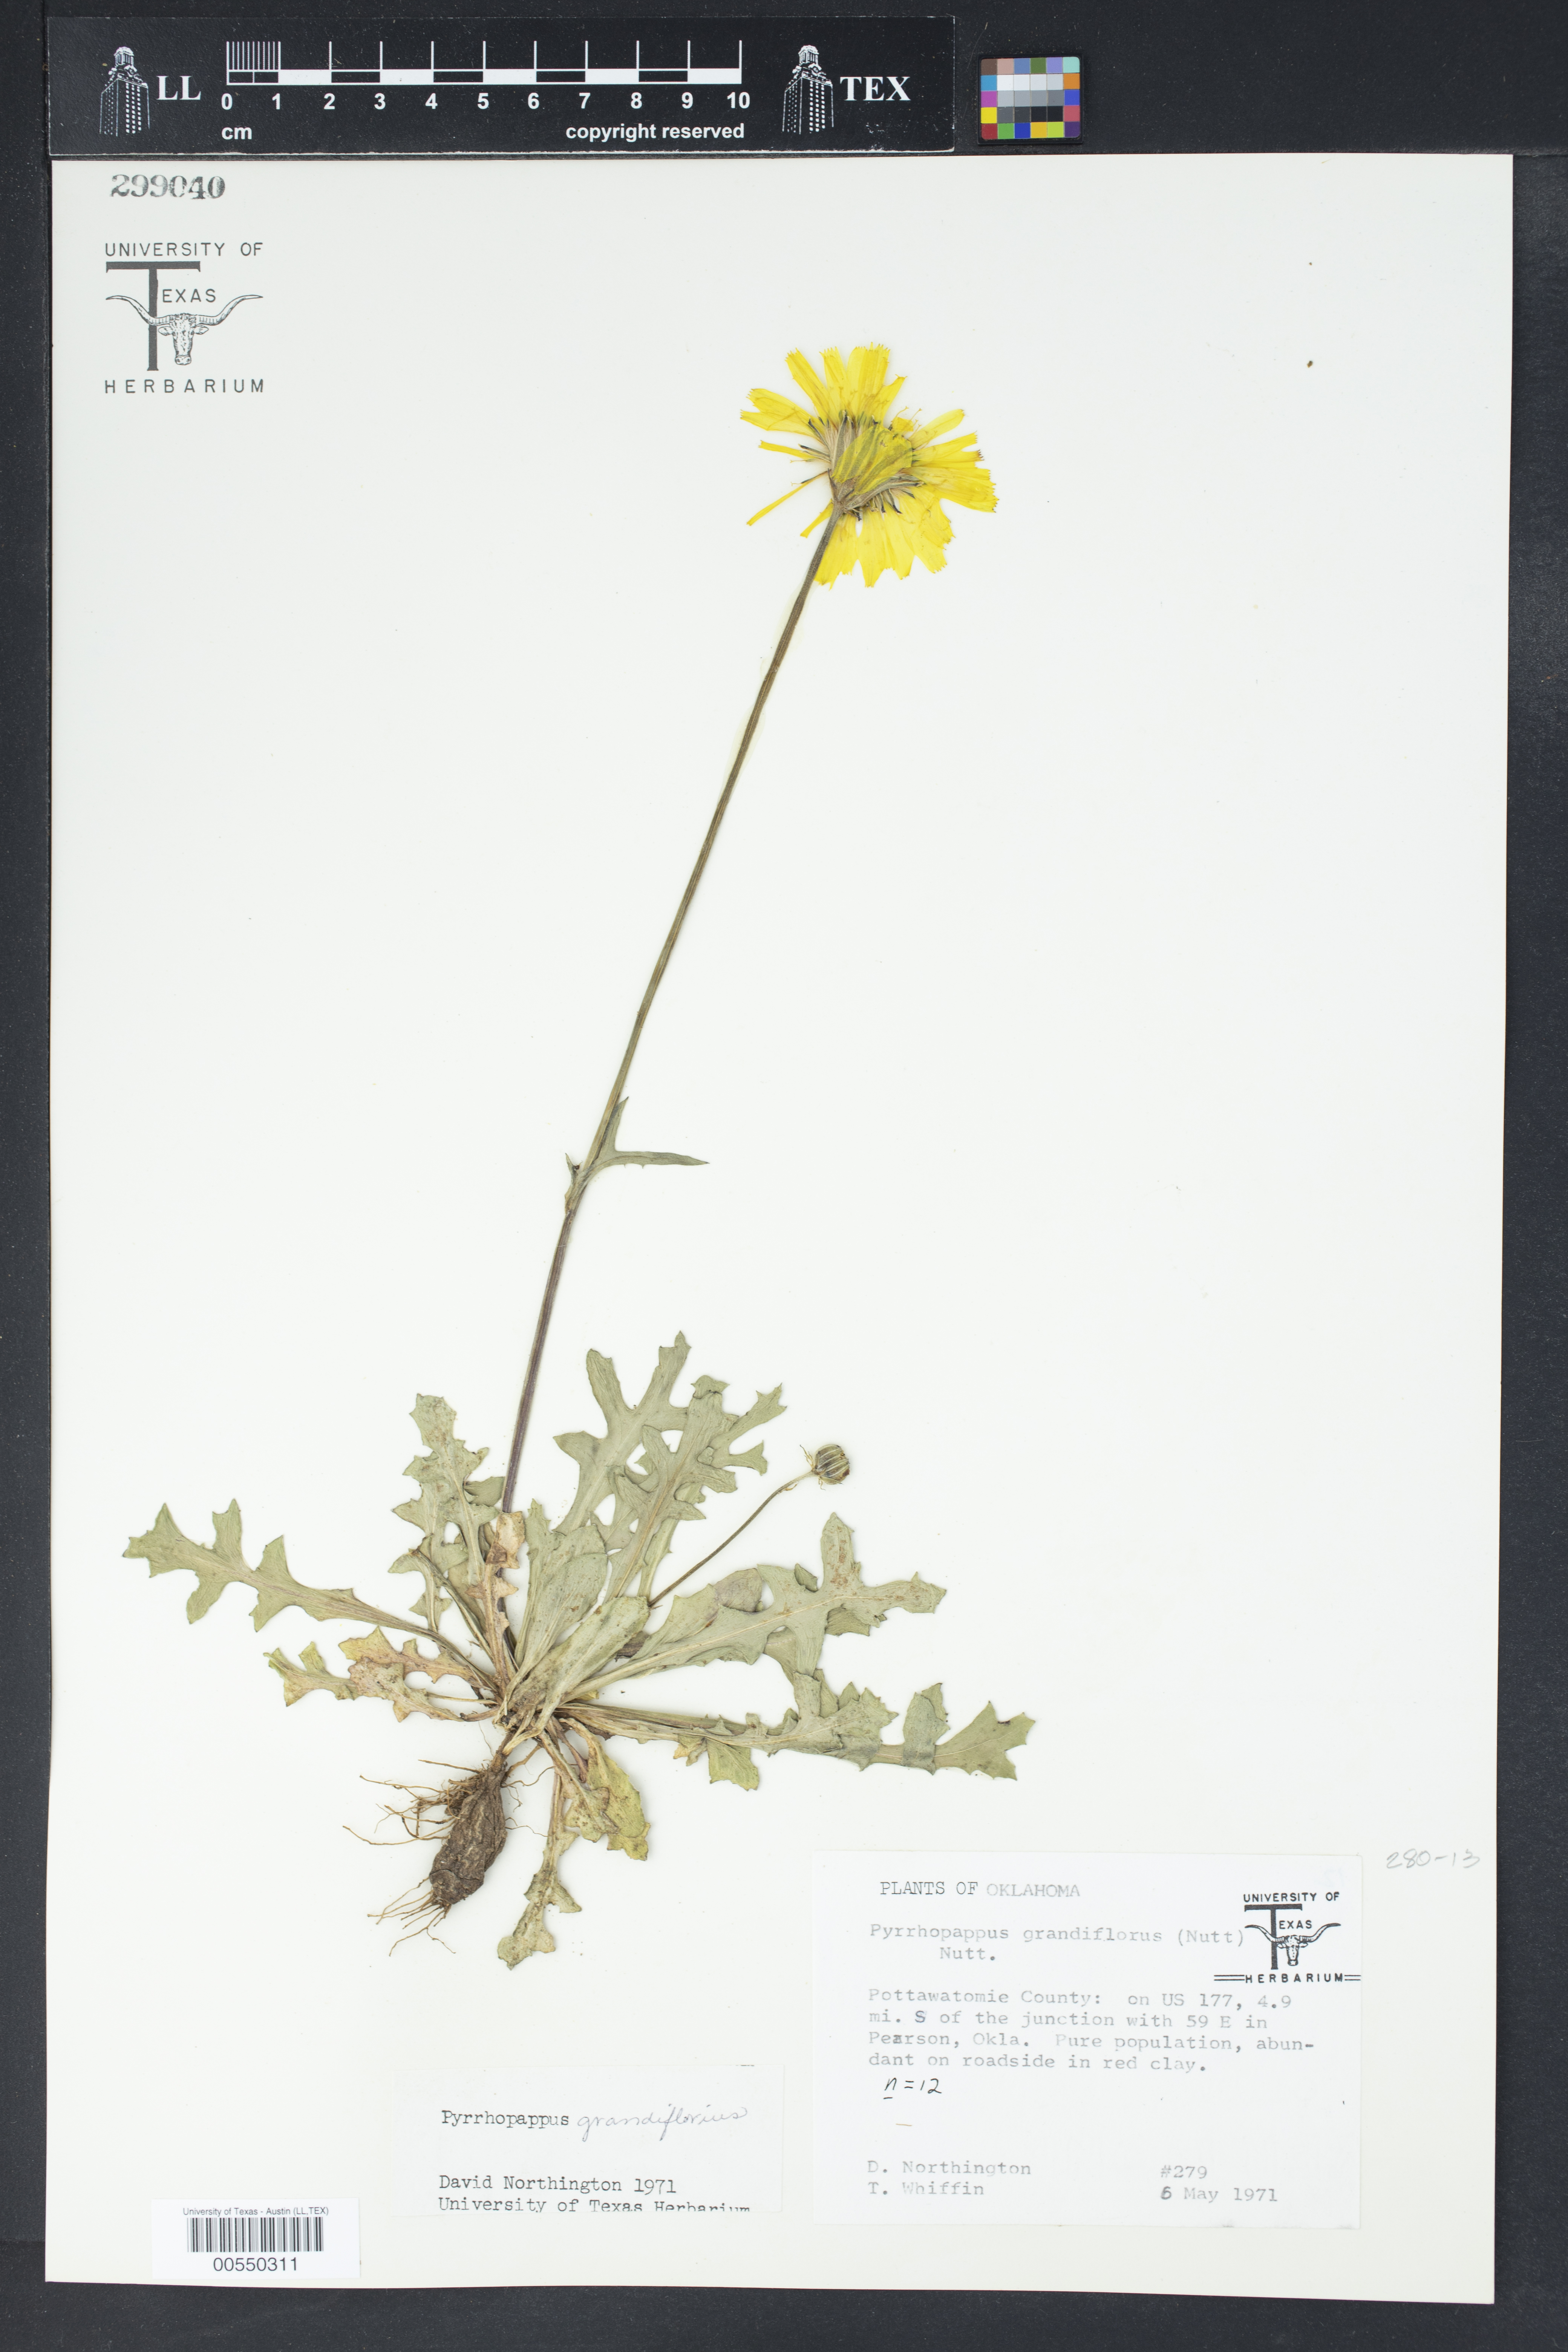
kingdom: Plantae
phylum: Tracheophyta
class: Magnoliopsida
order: Asterales
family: Asteraceae
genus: Pyrrhopappus
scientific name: Pyrrhopappus grandiflorus
